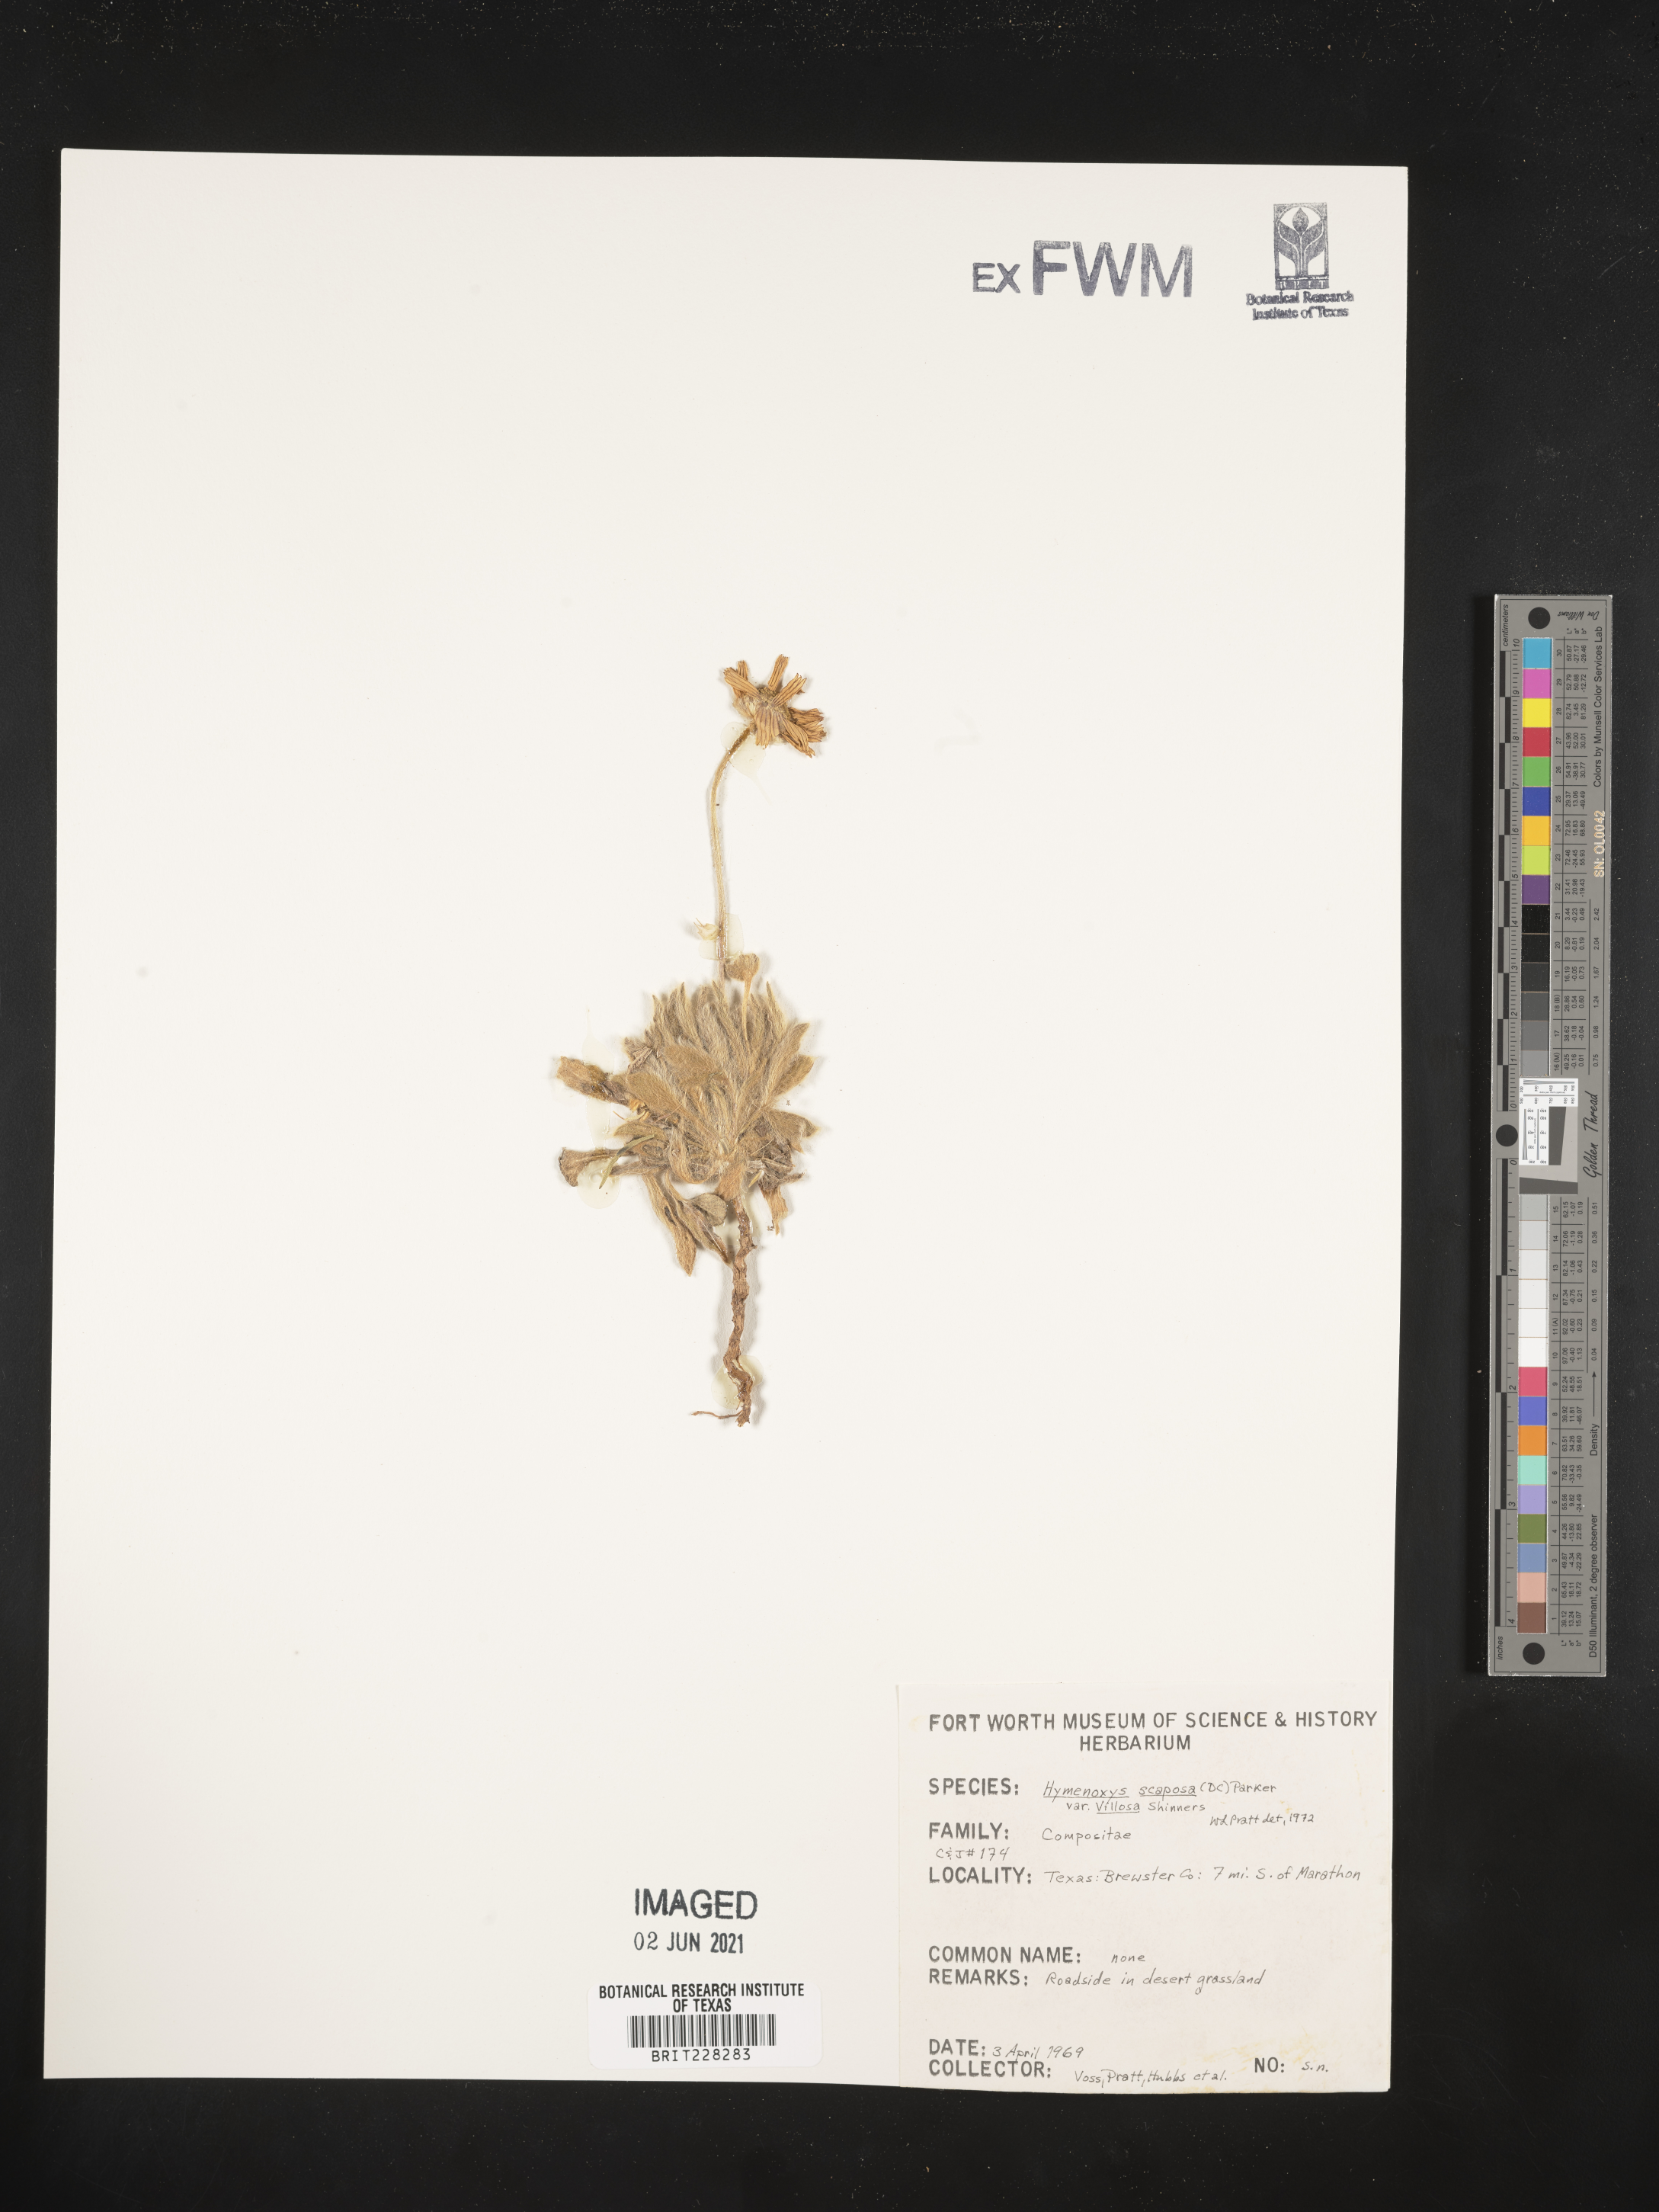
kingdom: Plantae
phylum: Tracheophyta
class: Magnoliopsida
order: Asterales
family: Asteraceae
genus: Tetraneuris
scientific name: Tetraneuris scaposa
